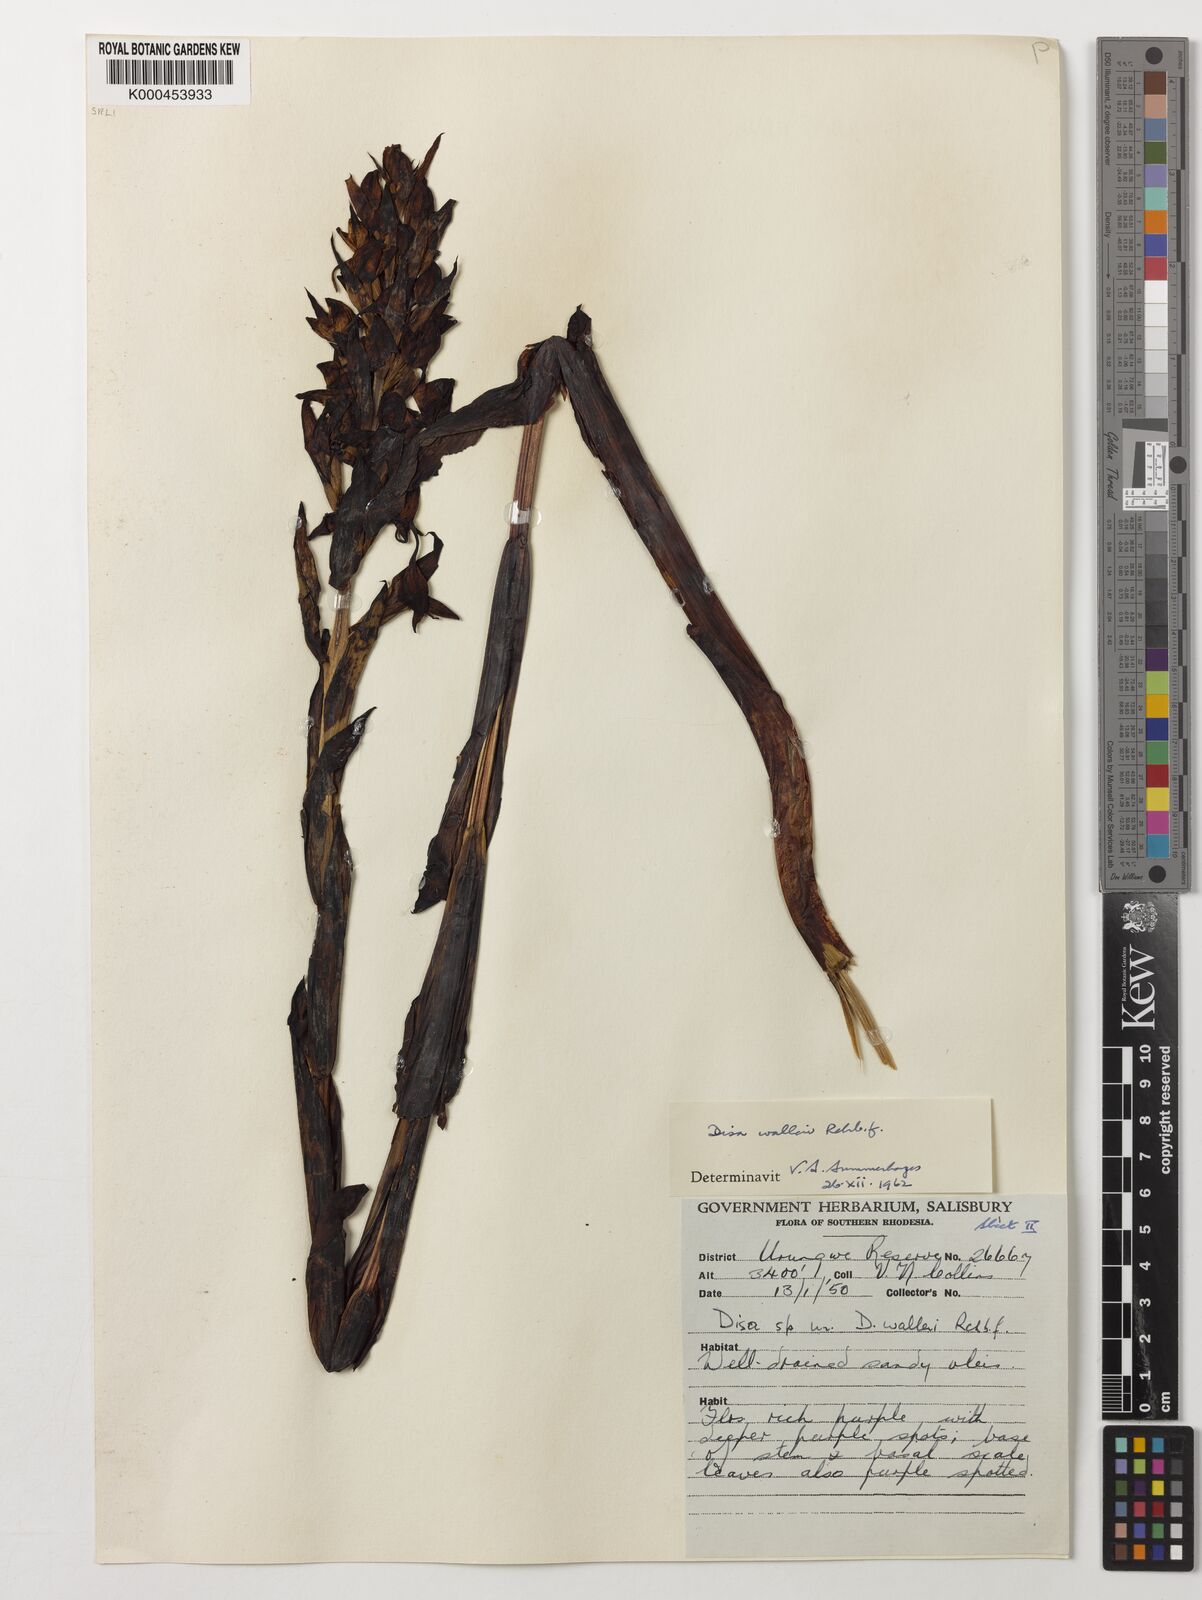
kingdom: Plantae
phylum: Tracheophyta
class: Liliopsida
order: Asparagales
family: Orchidaceae
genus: Disa
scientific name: Disa walleri
